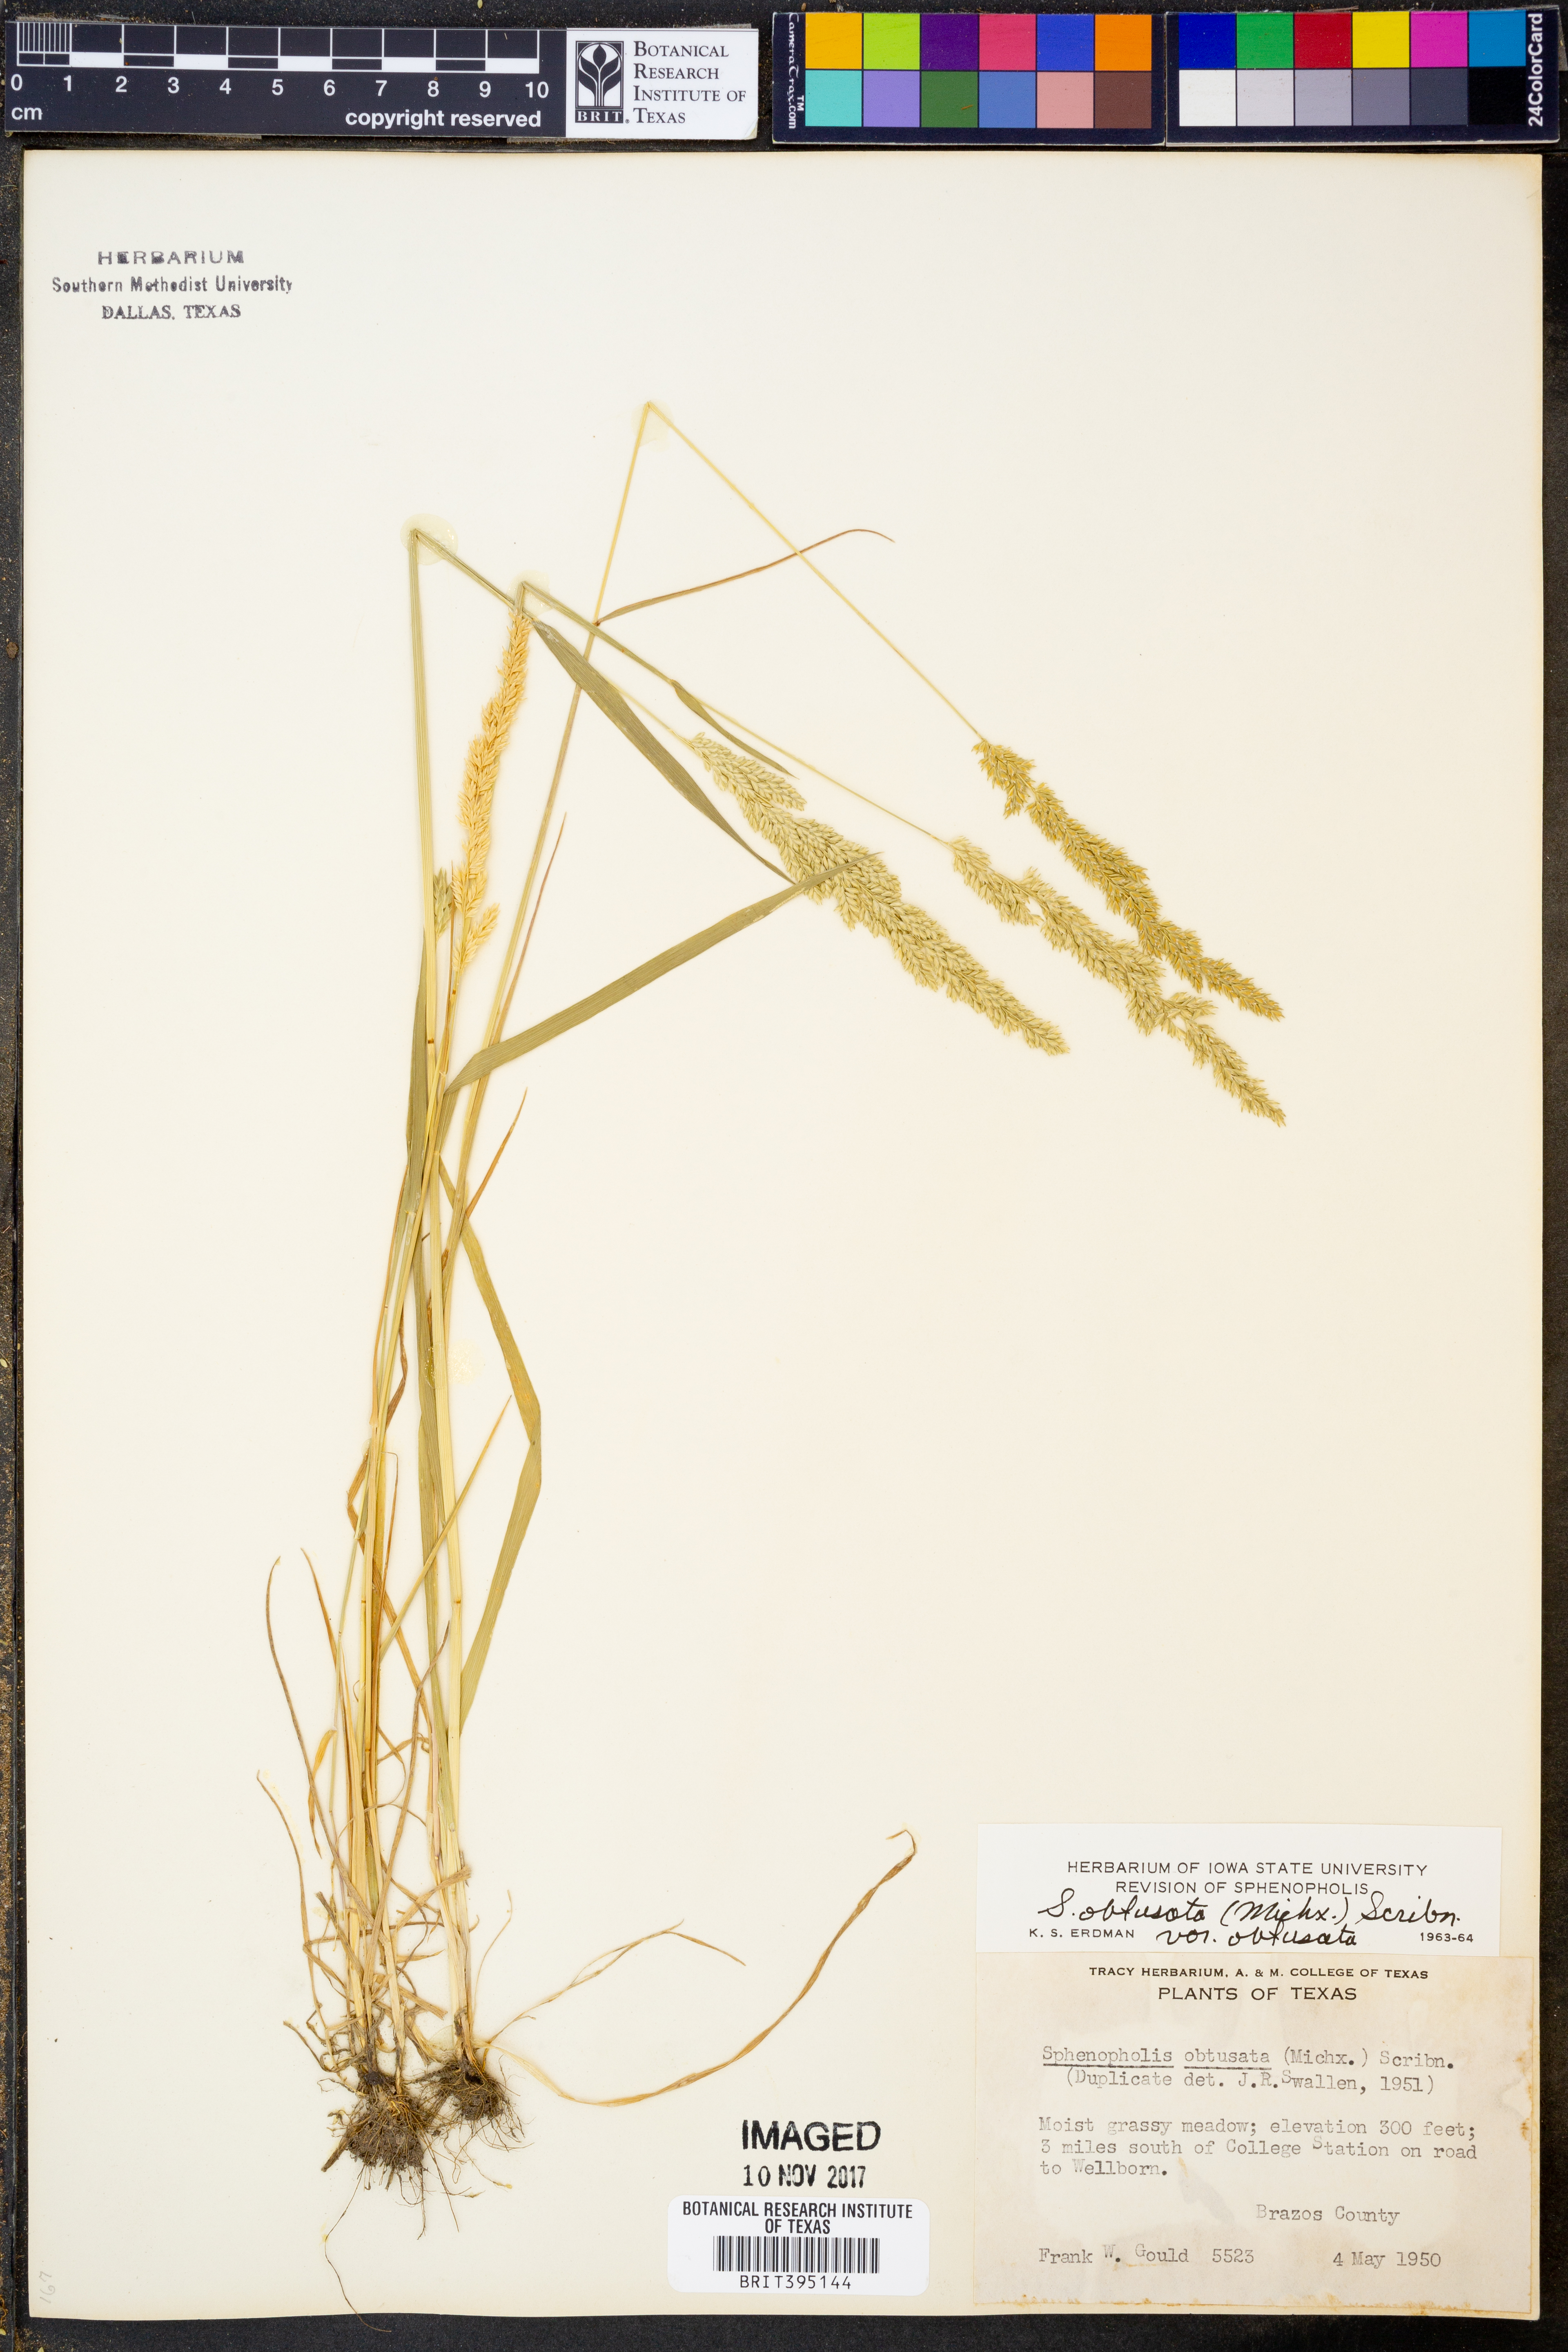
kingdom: Plantae
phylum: Tracheophyta
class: Liliopsida
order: Poales
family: Poaceae
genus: Sphenopholis
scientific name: Sphenopholis obtusata
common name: Prairie grass
